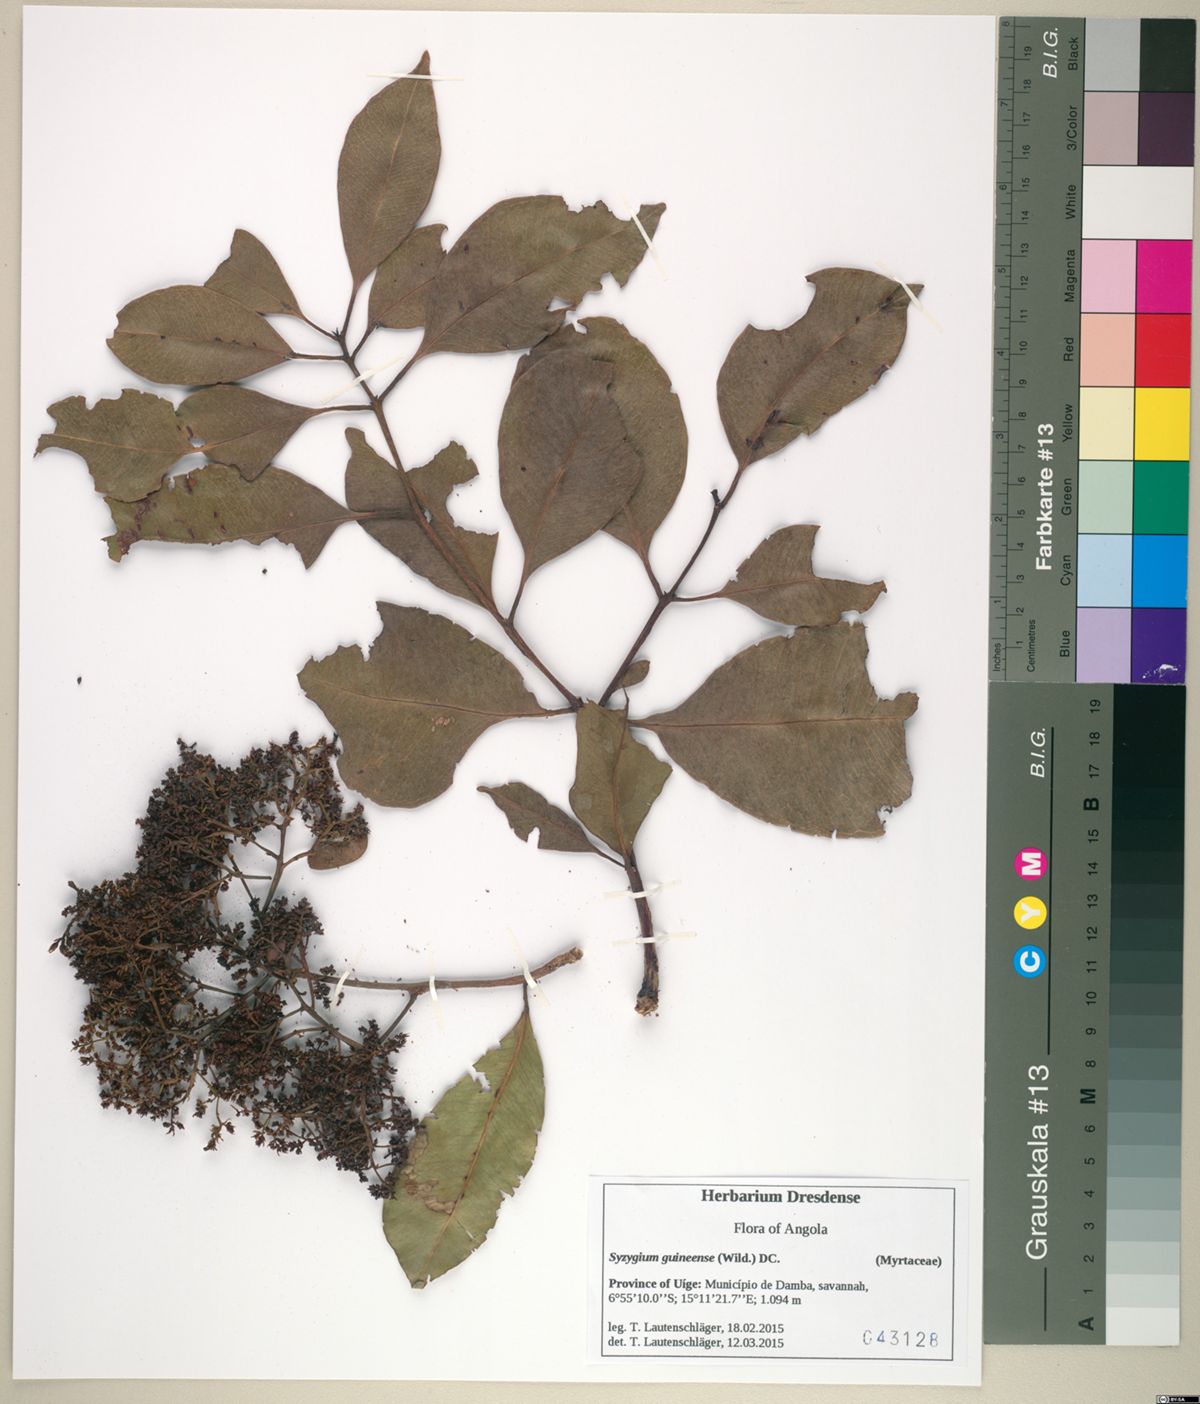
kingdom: Plantae
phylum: Tracheophyta
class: Magnoliopsida
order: Myrtales
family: Myrtaceae
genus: Syzygium
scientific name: Syzygium guineense
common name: Water-pear
